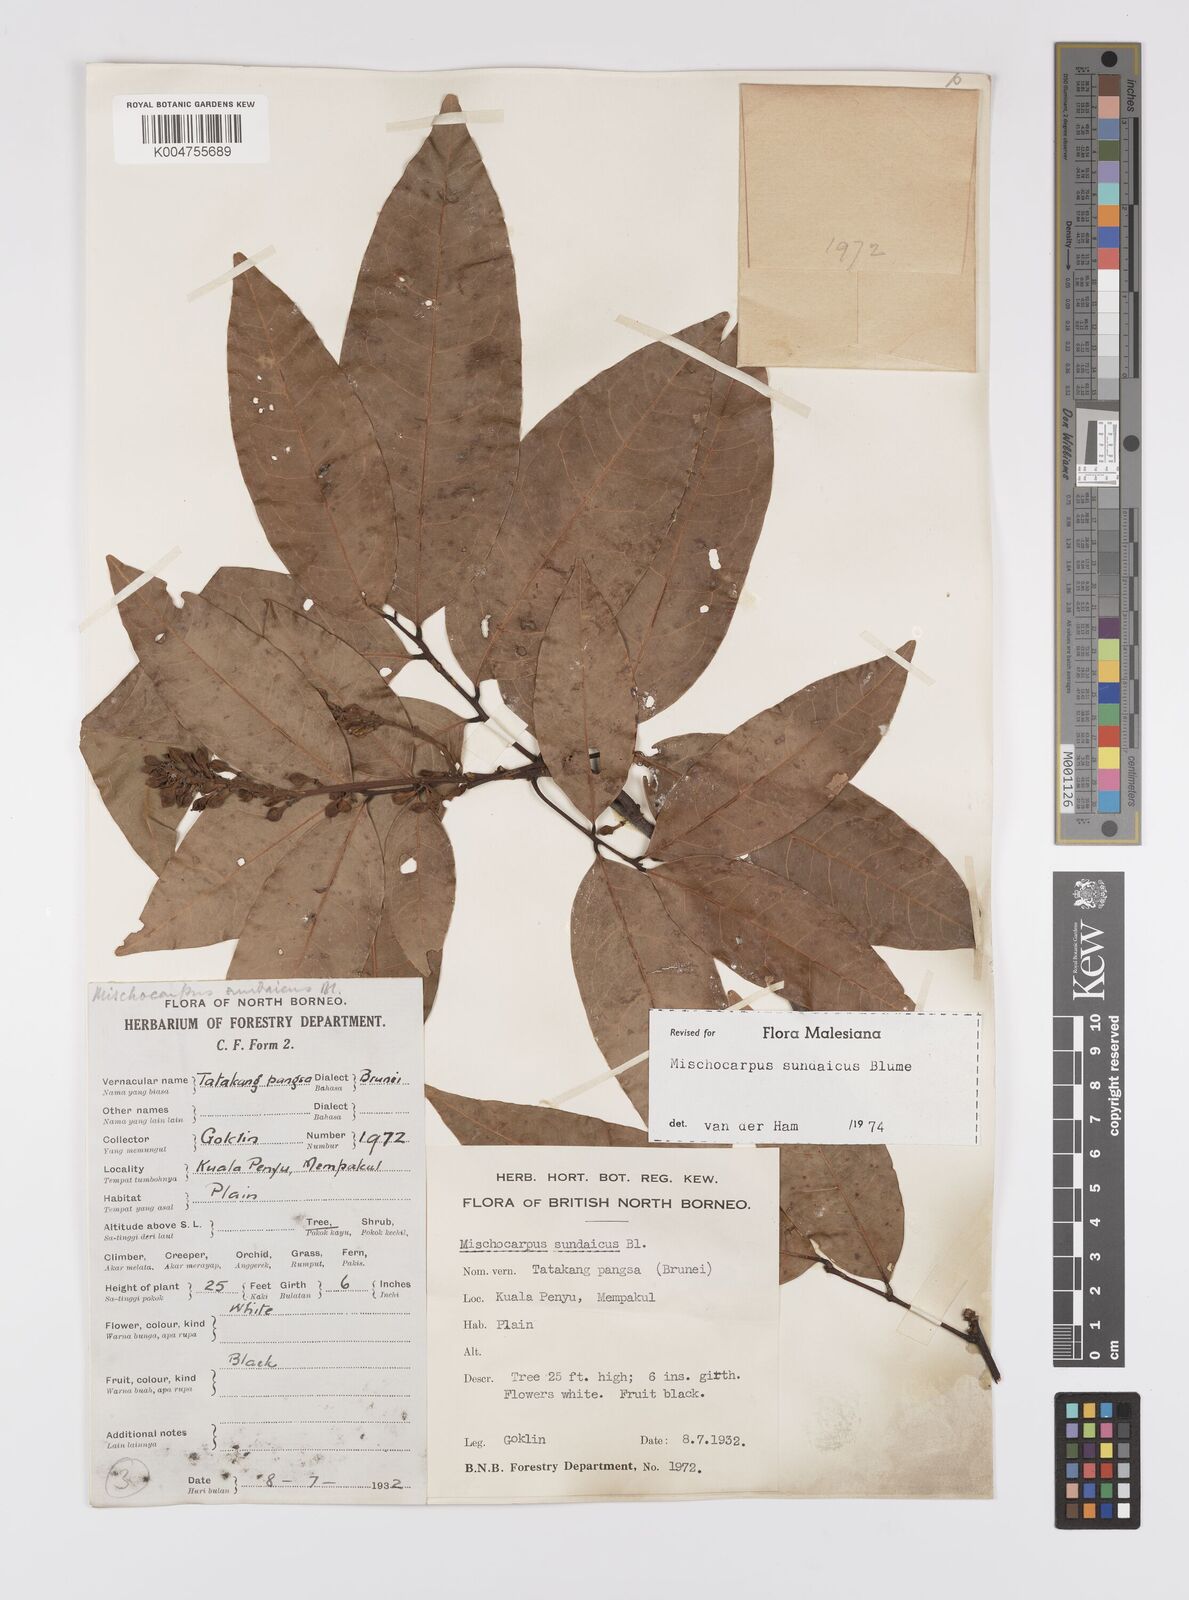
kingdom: Plantae
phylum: Tracheophyta
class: Magnoliopsida
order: Sapindales
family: Sapindaceae
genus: Mischocarpus
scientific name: Mischocarpus sundaicus
